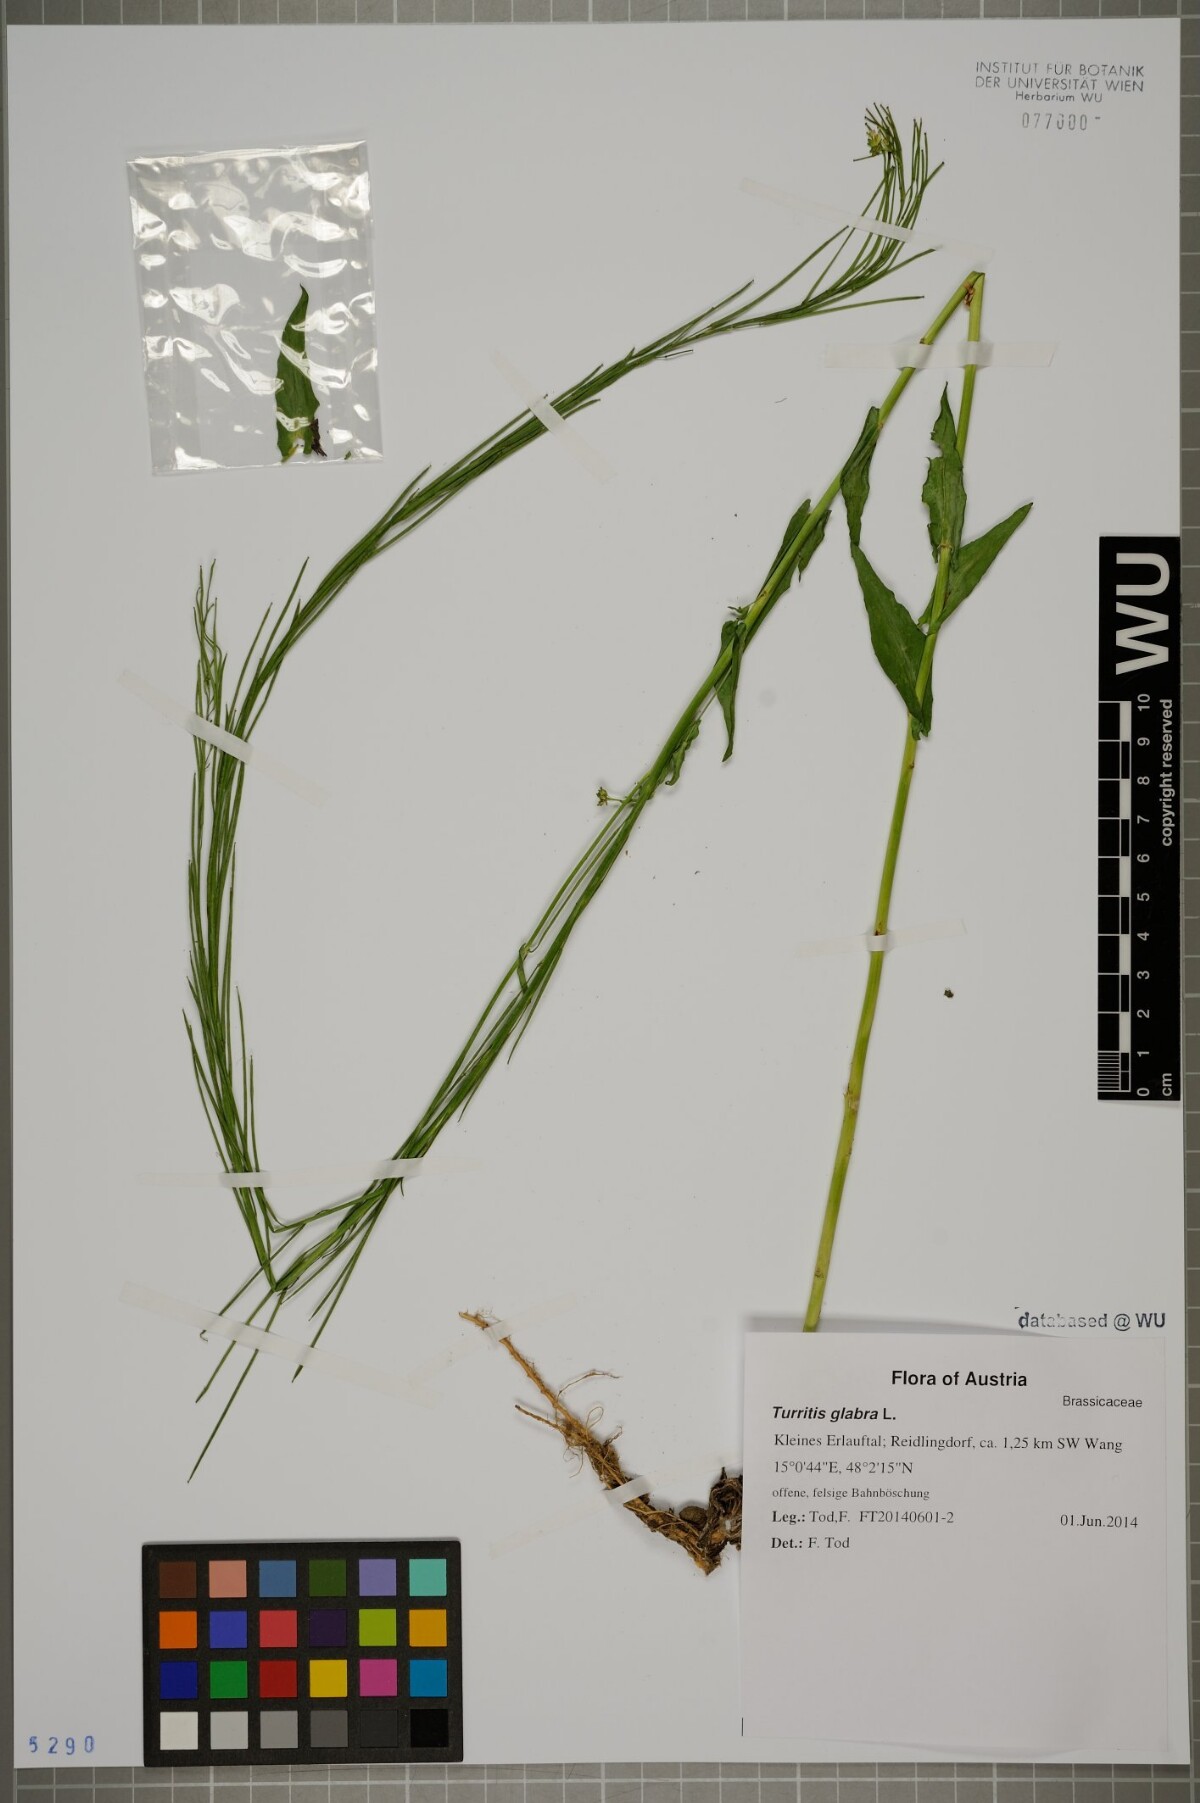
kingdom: Plantae
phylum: Tracheophyta
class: Magnoliopsida
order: Brassicales
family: Brassicaceae
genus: Turritis
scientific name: Turritis glabra
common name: Tower rockcress
